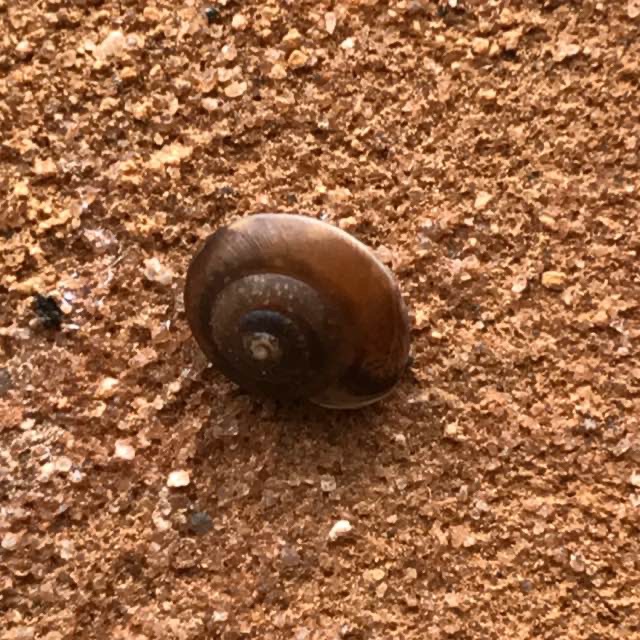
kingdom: Animalia
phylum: Mollusca
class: Gastropoda
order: Stylommatophora
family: Hygromiidae
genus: Hygromia
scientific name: Hygromia cinctella
